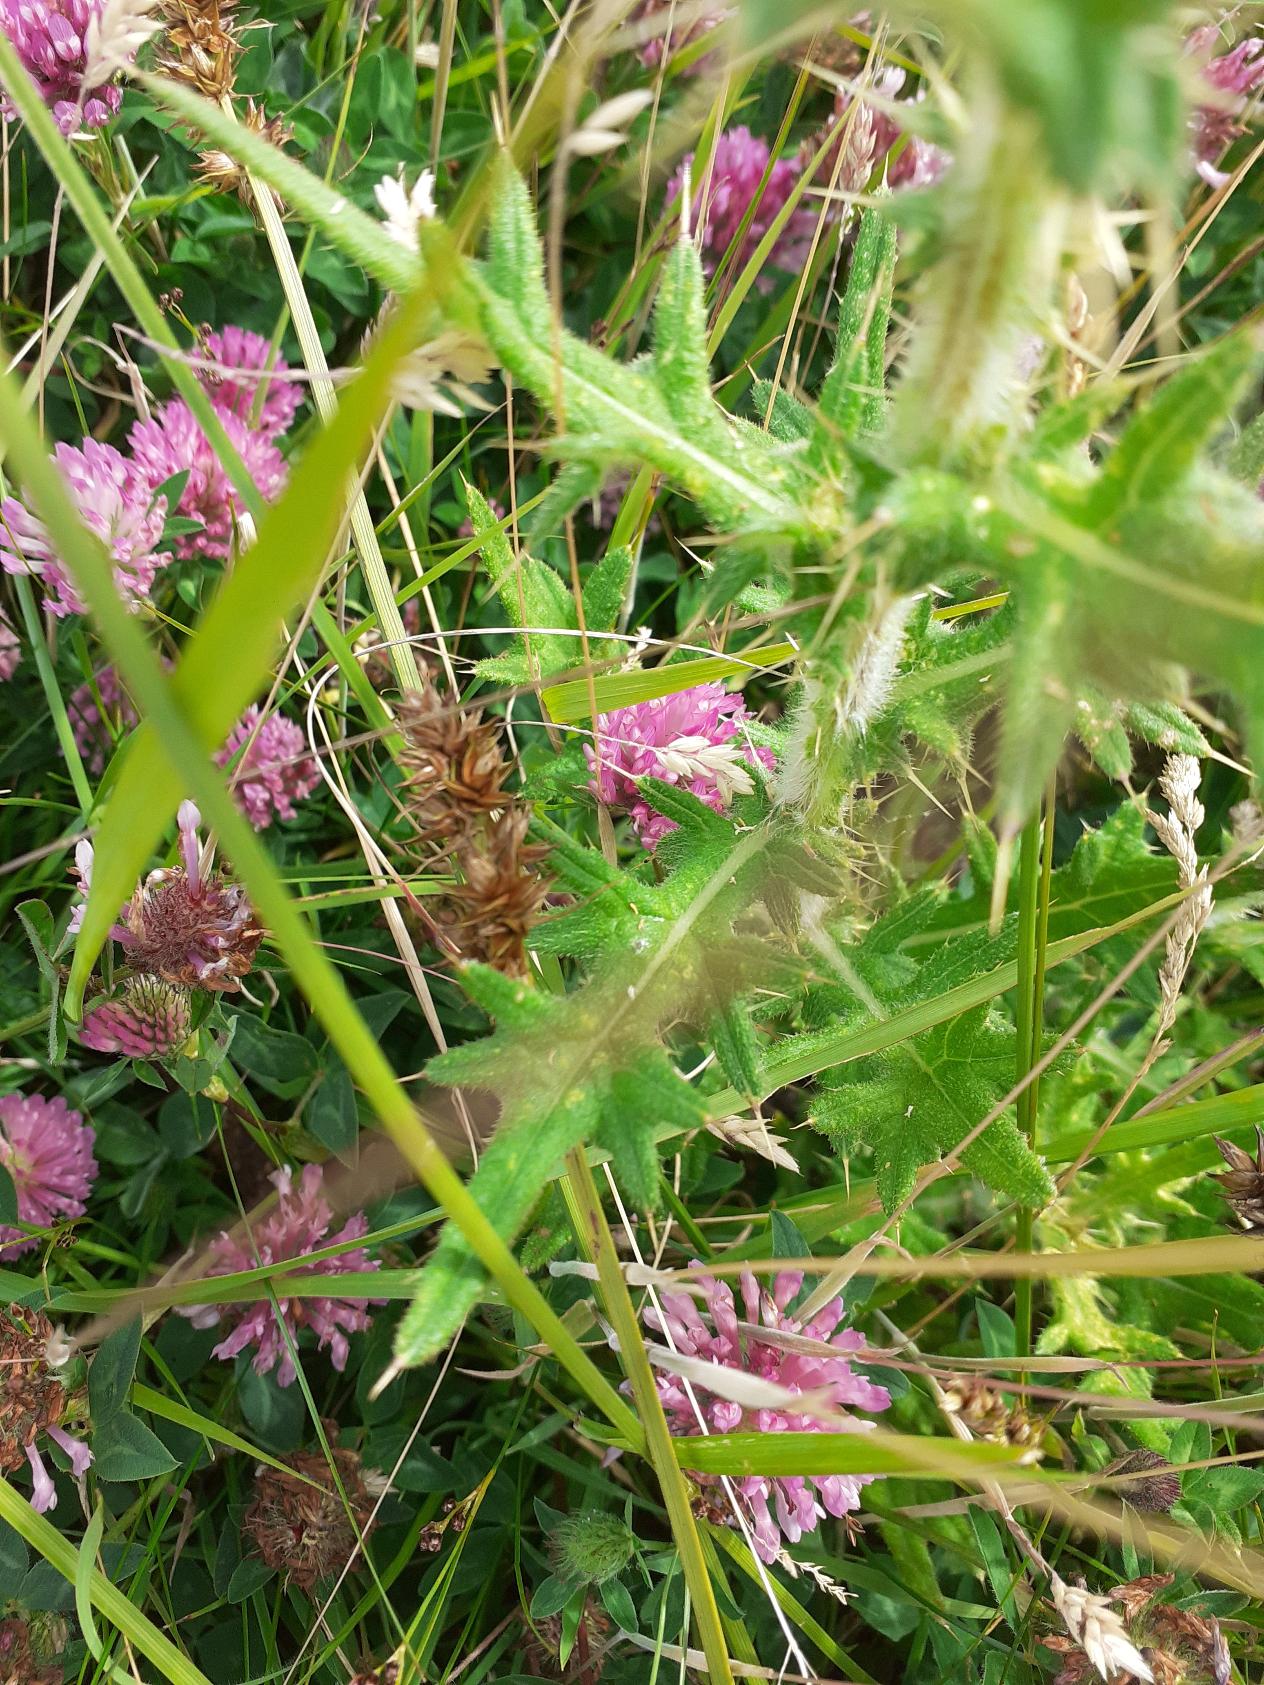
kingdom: Plantae
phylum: Tracheophyta
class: Magnoliopsida
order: Asterales
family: Asteraceae
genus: Cirsium
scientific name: Cirsium vulgare
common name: Horse-tidsel
